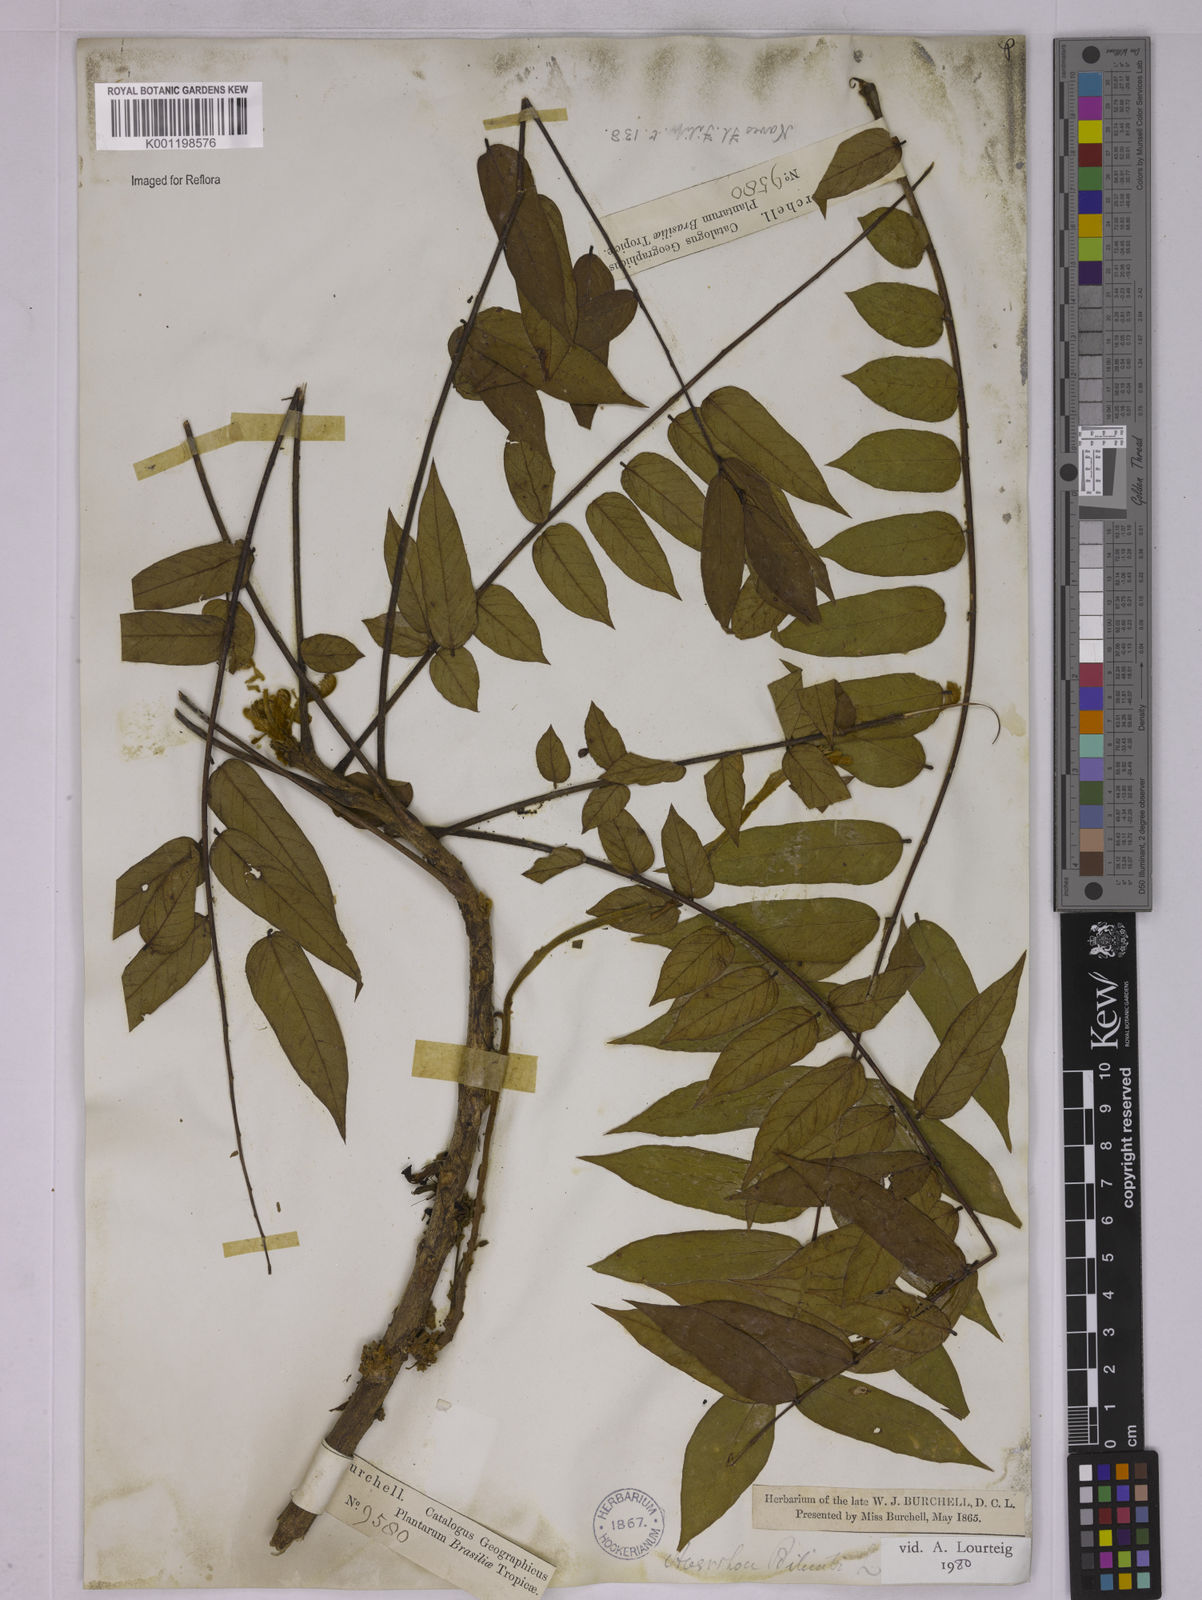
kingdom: Plantae
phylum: Tracheophyta
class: Magnoliopsida
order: Oxalidales
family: Oxalidaceae
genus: Averrhoa
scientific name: Averrhoa bilimbi
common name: Bilimbi
